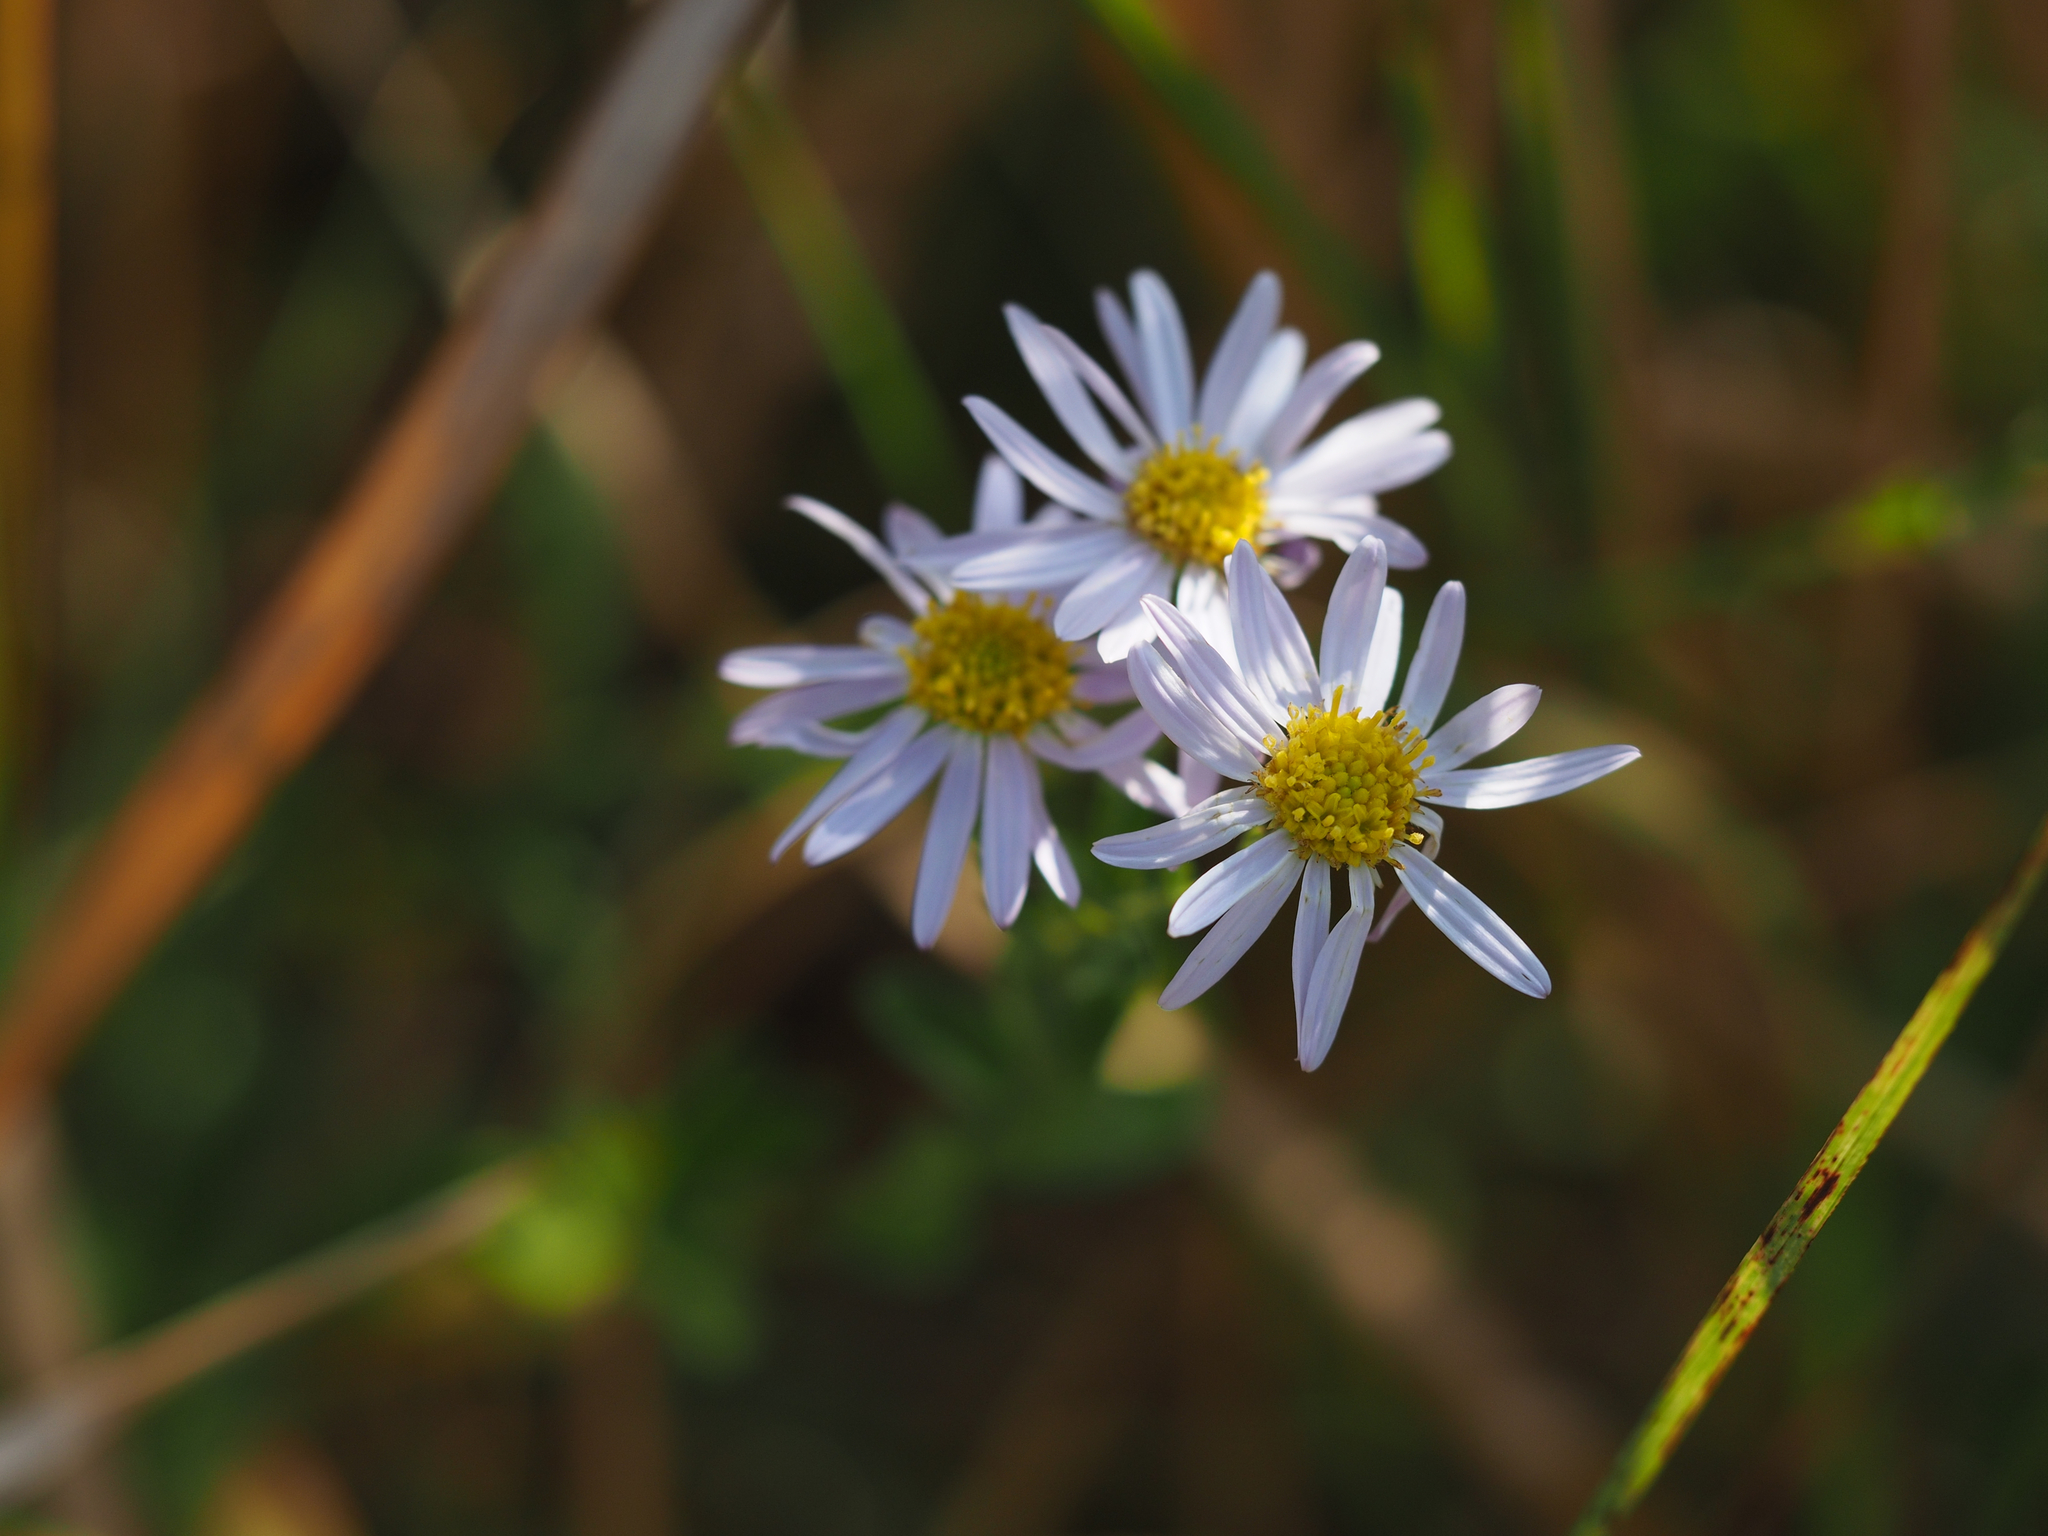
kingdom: Plantae
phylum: Tracheophyta
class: Magnoliopsida
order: Asterales
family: Asteraceae
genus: Aster
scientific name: Aster shimadae
